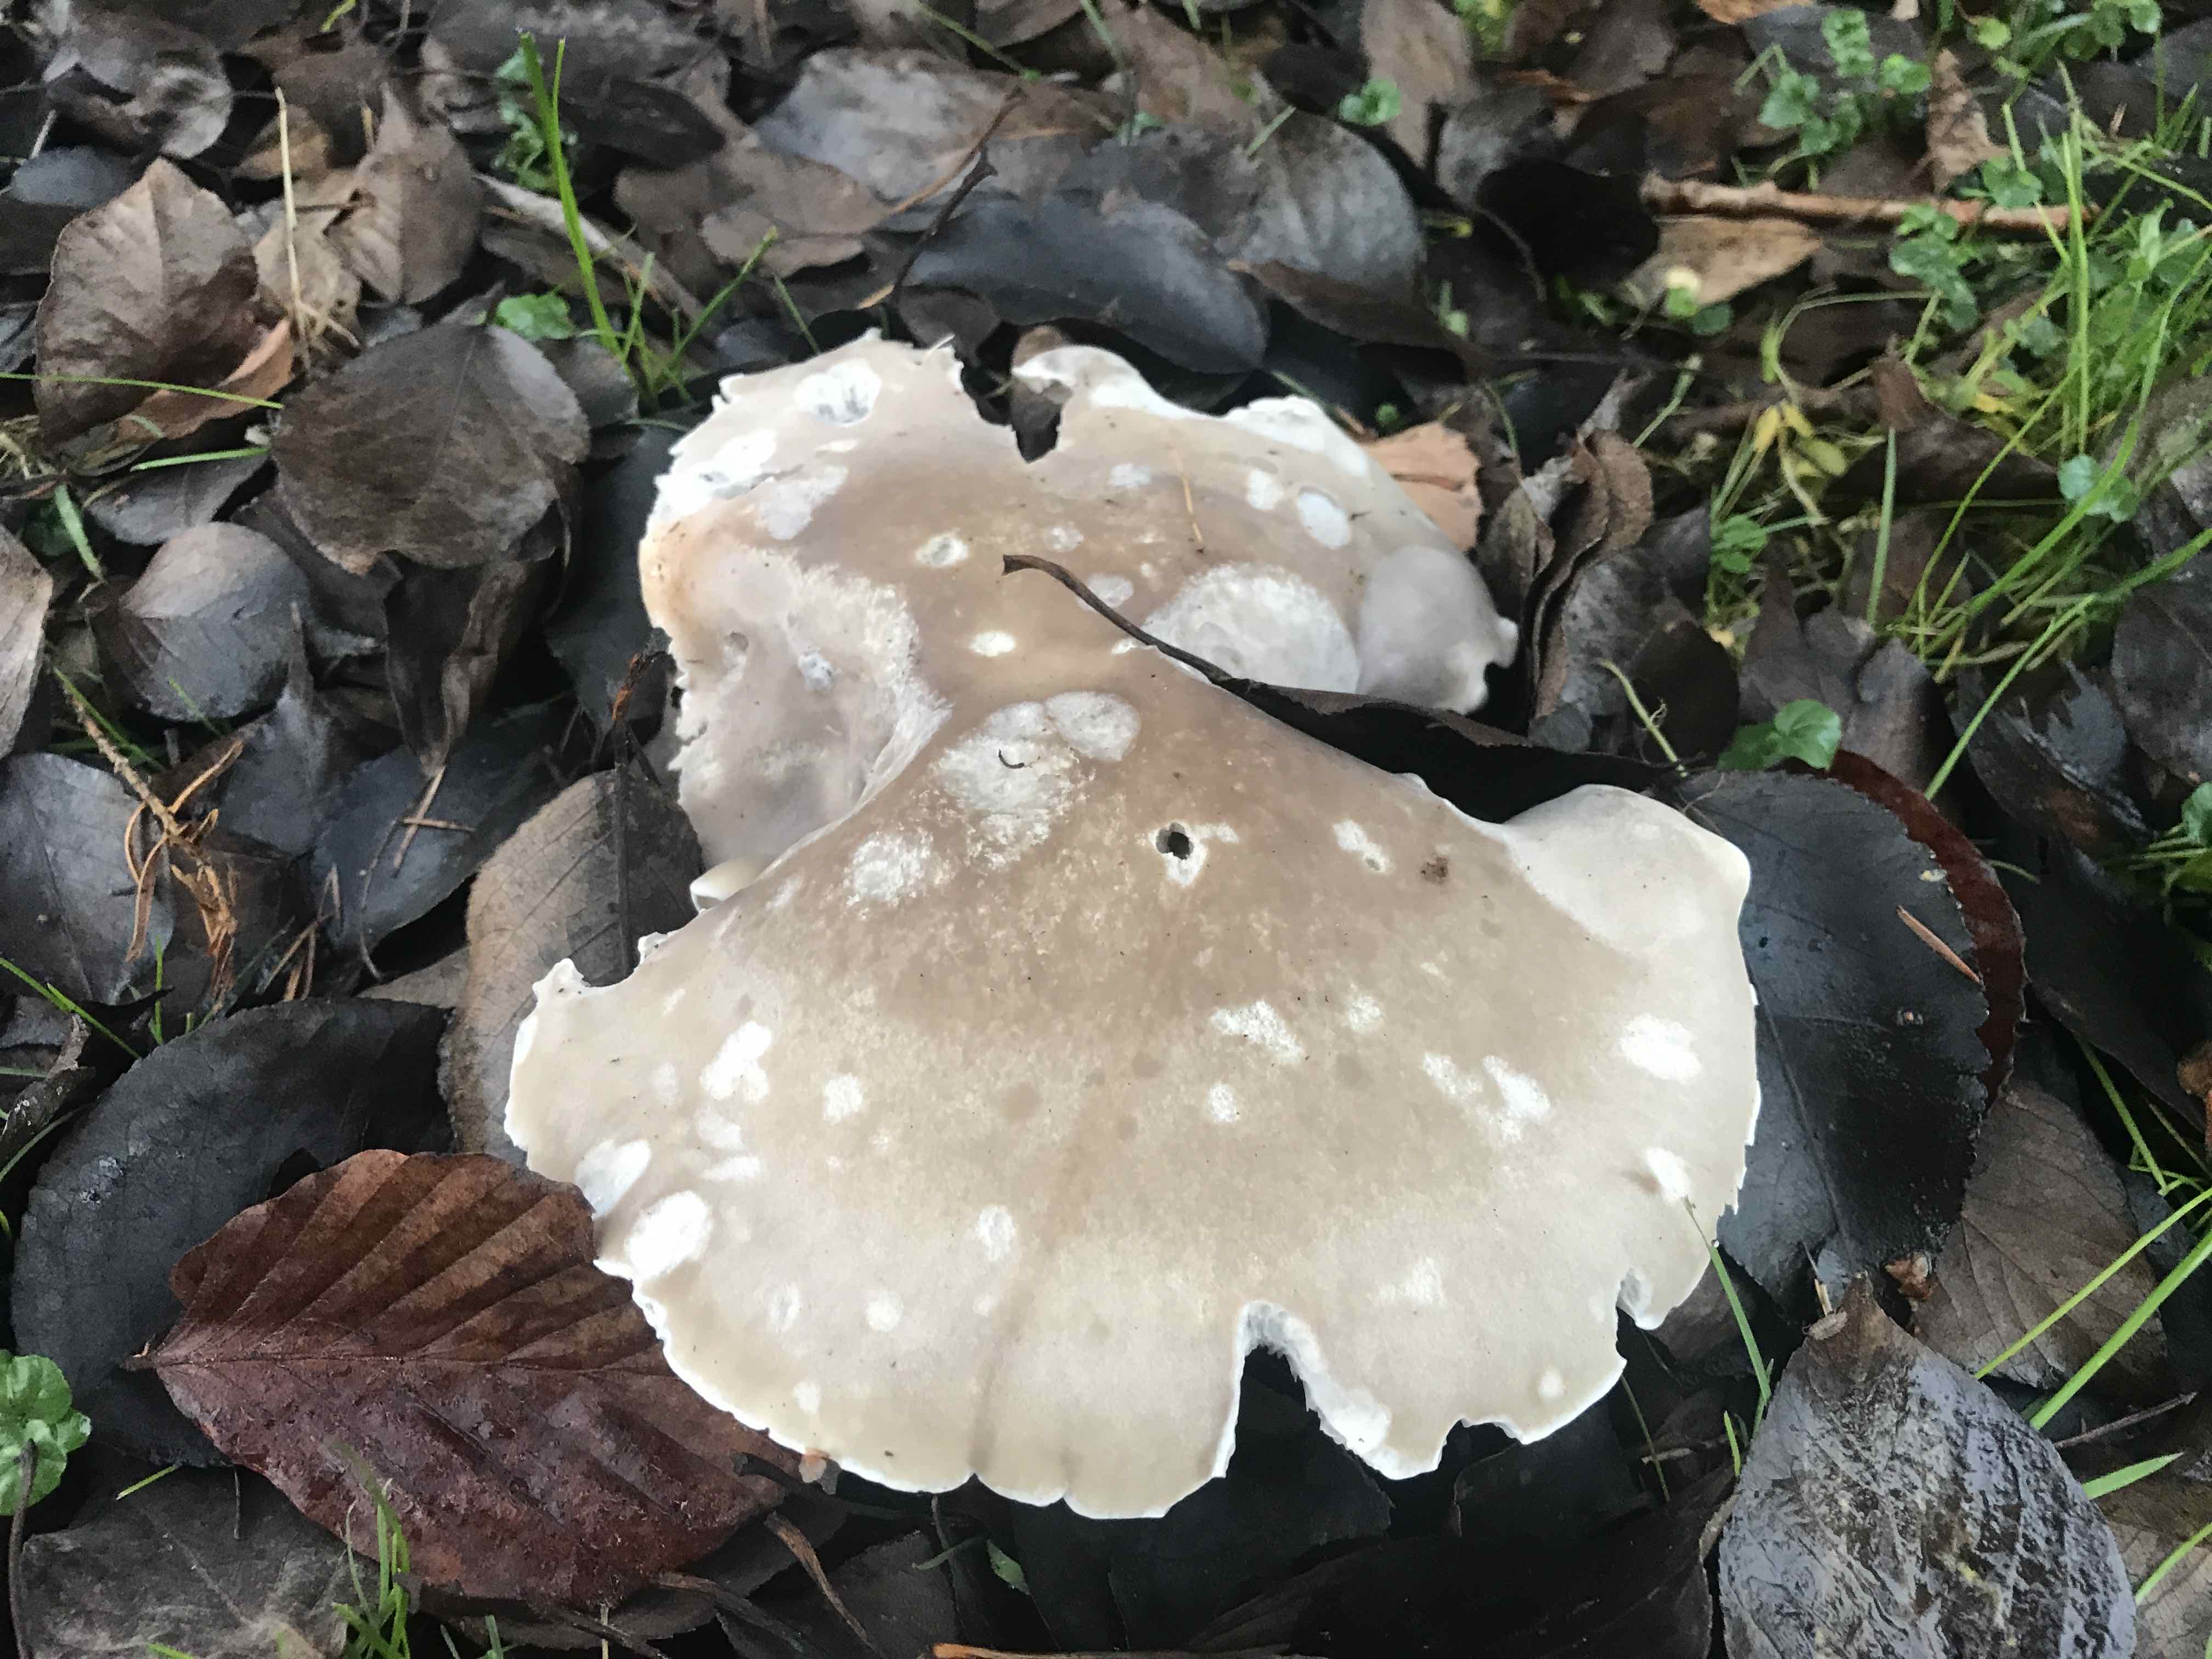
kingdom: Fungi
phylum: Basidiomycota
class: Agaricomycetes
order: Agaricales
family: Tricholomataceae
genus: Lepista
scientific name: Lepista personata
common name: bleg hekseringshat
